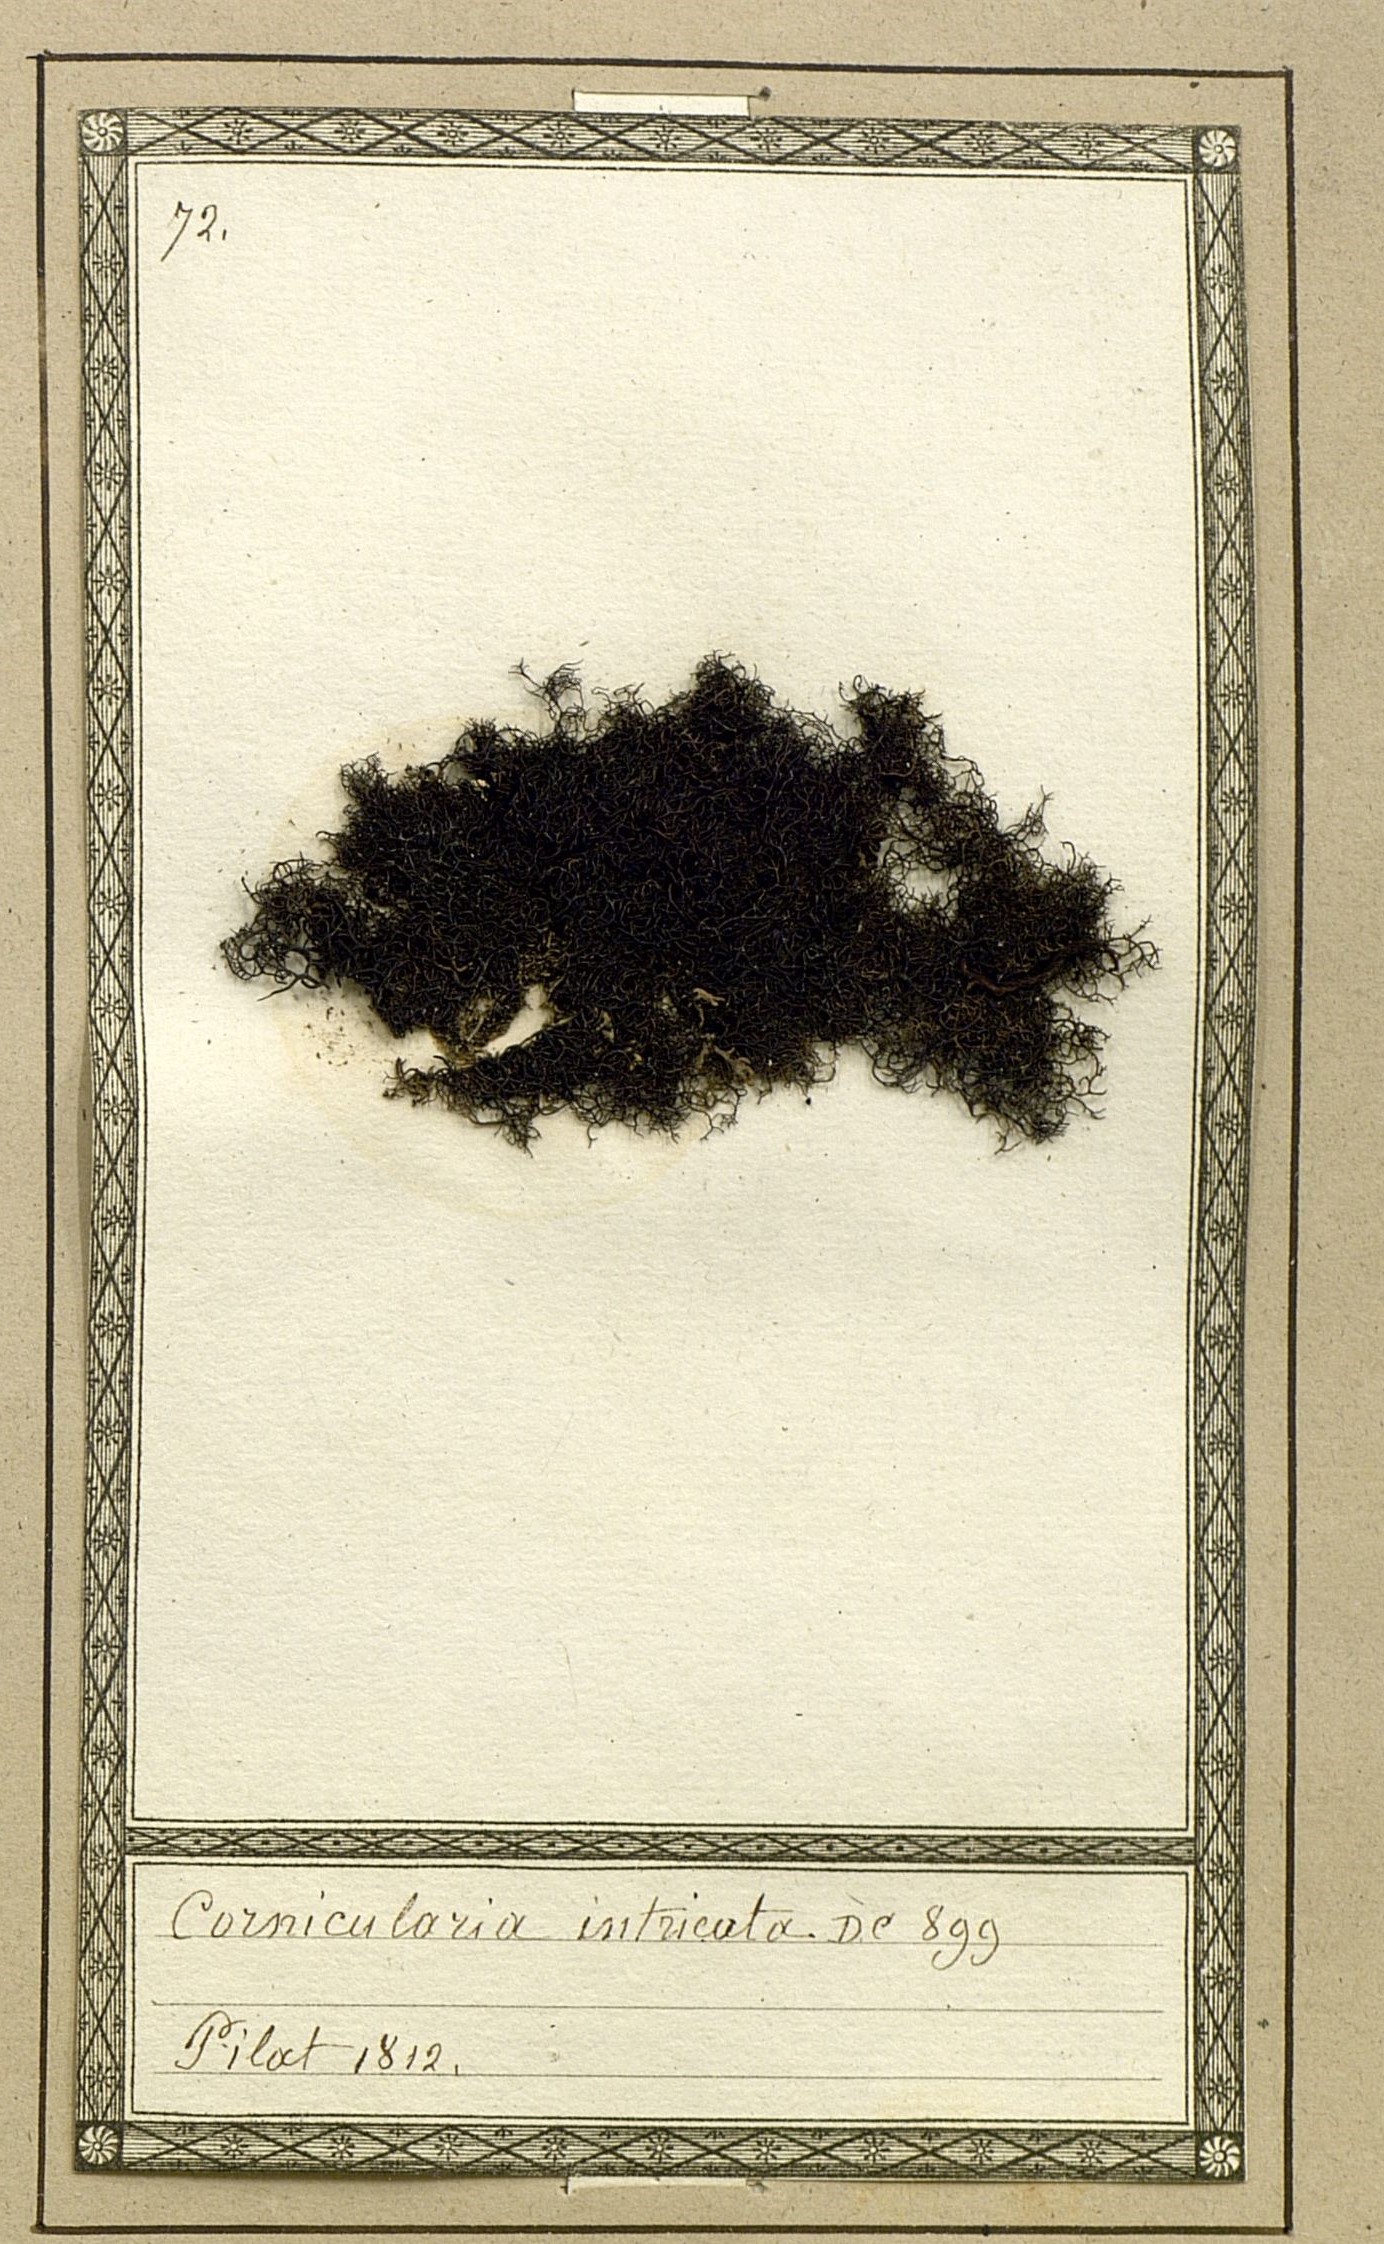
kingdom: Fungi
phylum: Ascomycota
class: Lecanoromycetes
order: Caliciales
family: Physciaceae
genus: Tornabea
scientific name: Tornabea scutellifera
